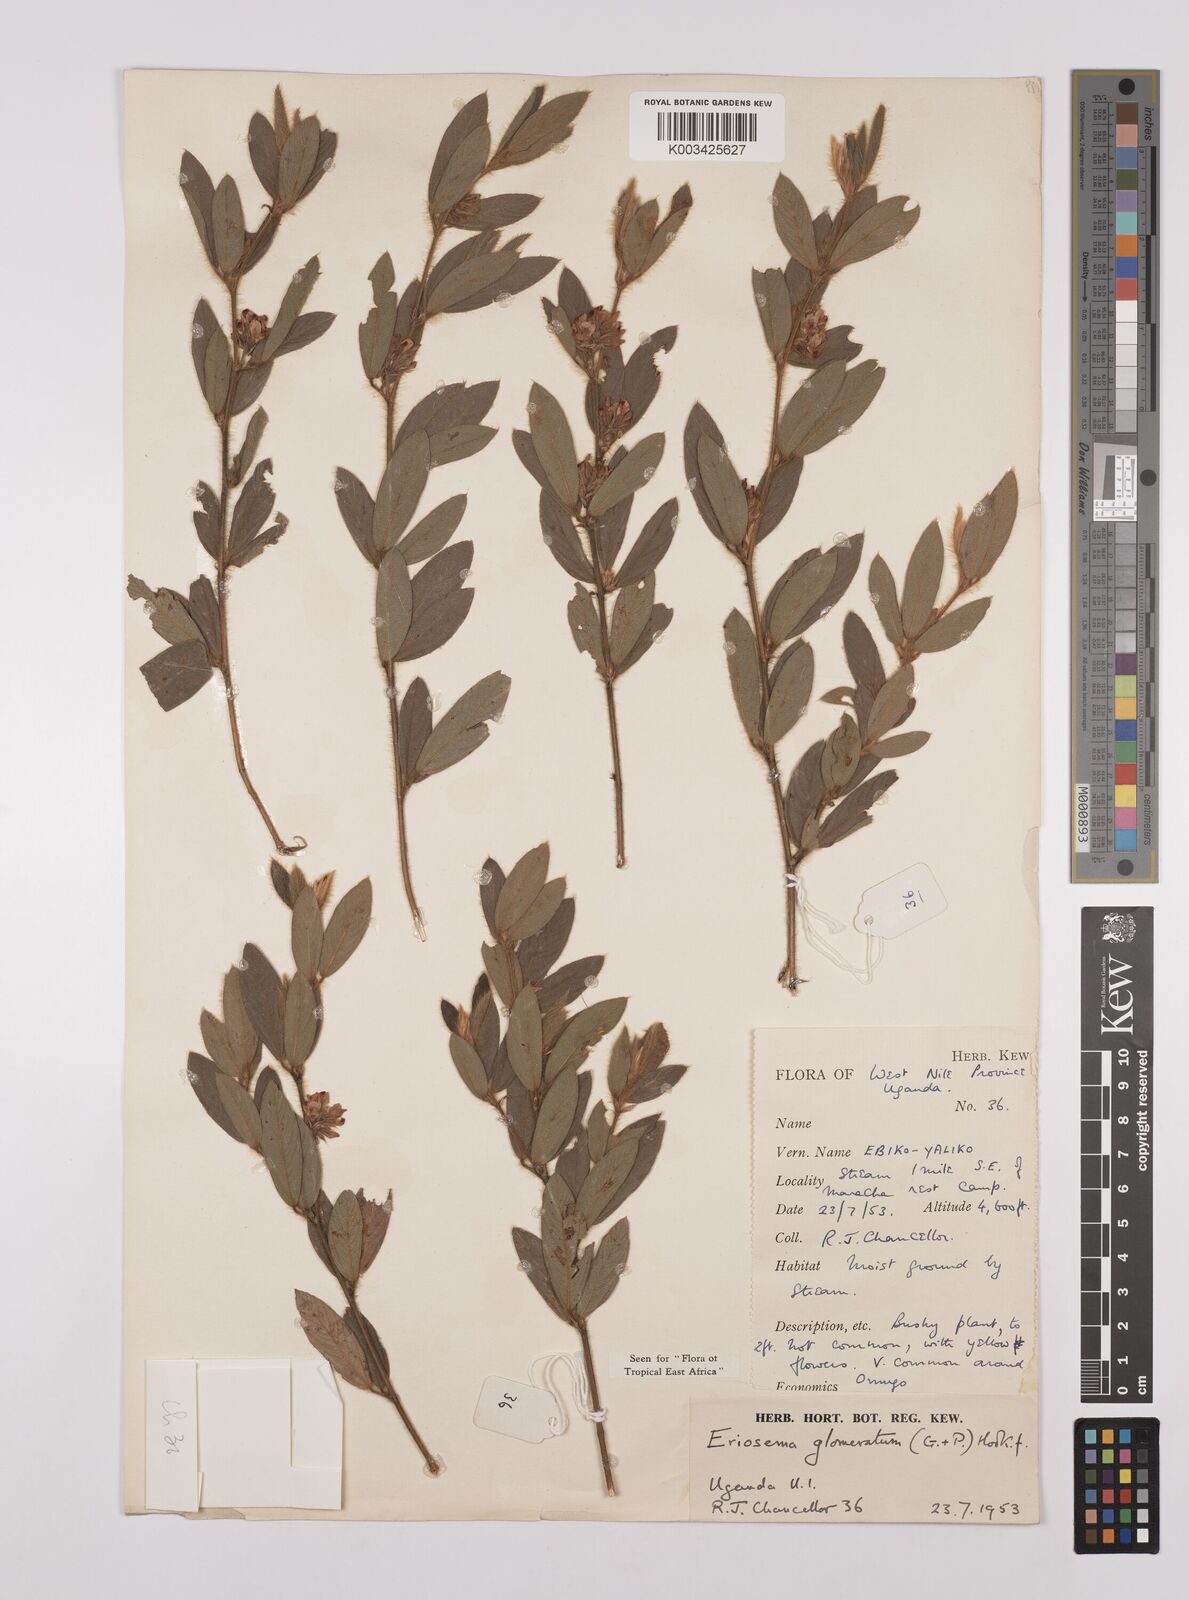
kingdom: Plantae
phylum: Tracheophyta
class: Magnoliopsida
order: Fabales
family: Fabaceae
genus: Eriosema
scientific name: Eriosema glomeratum
